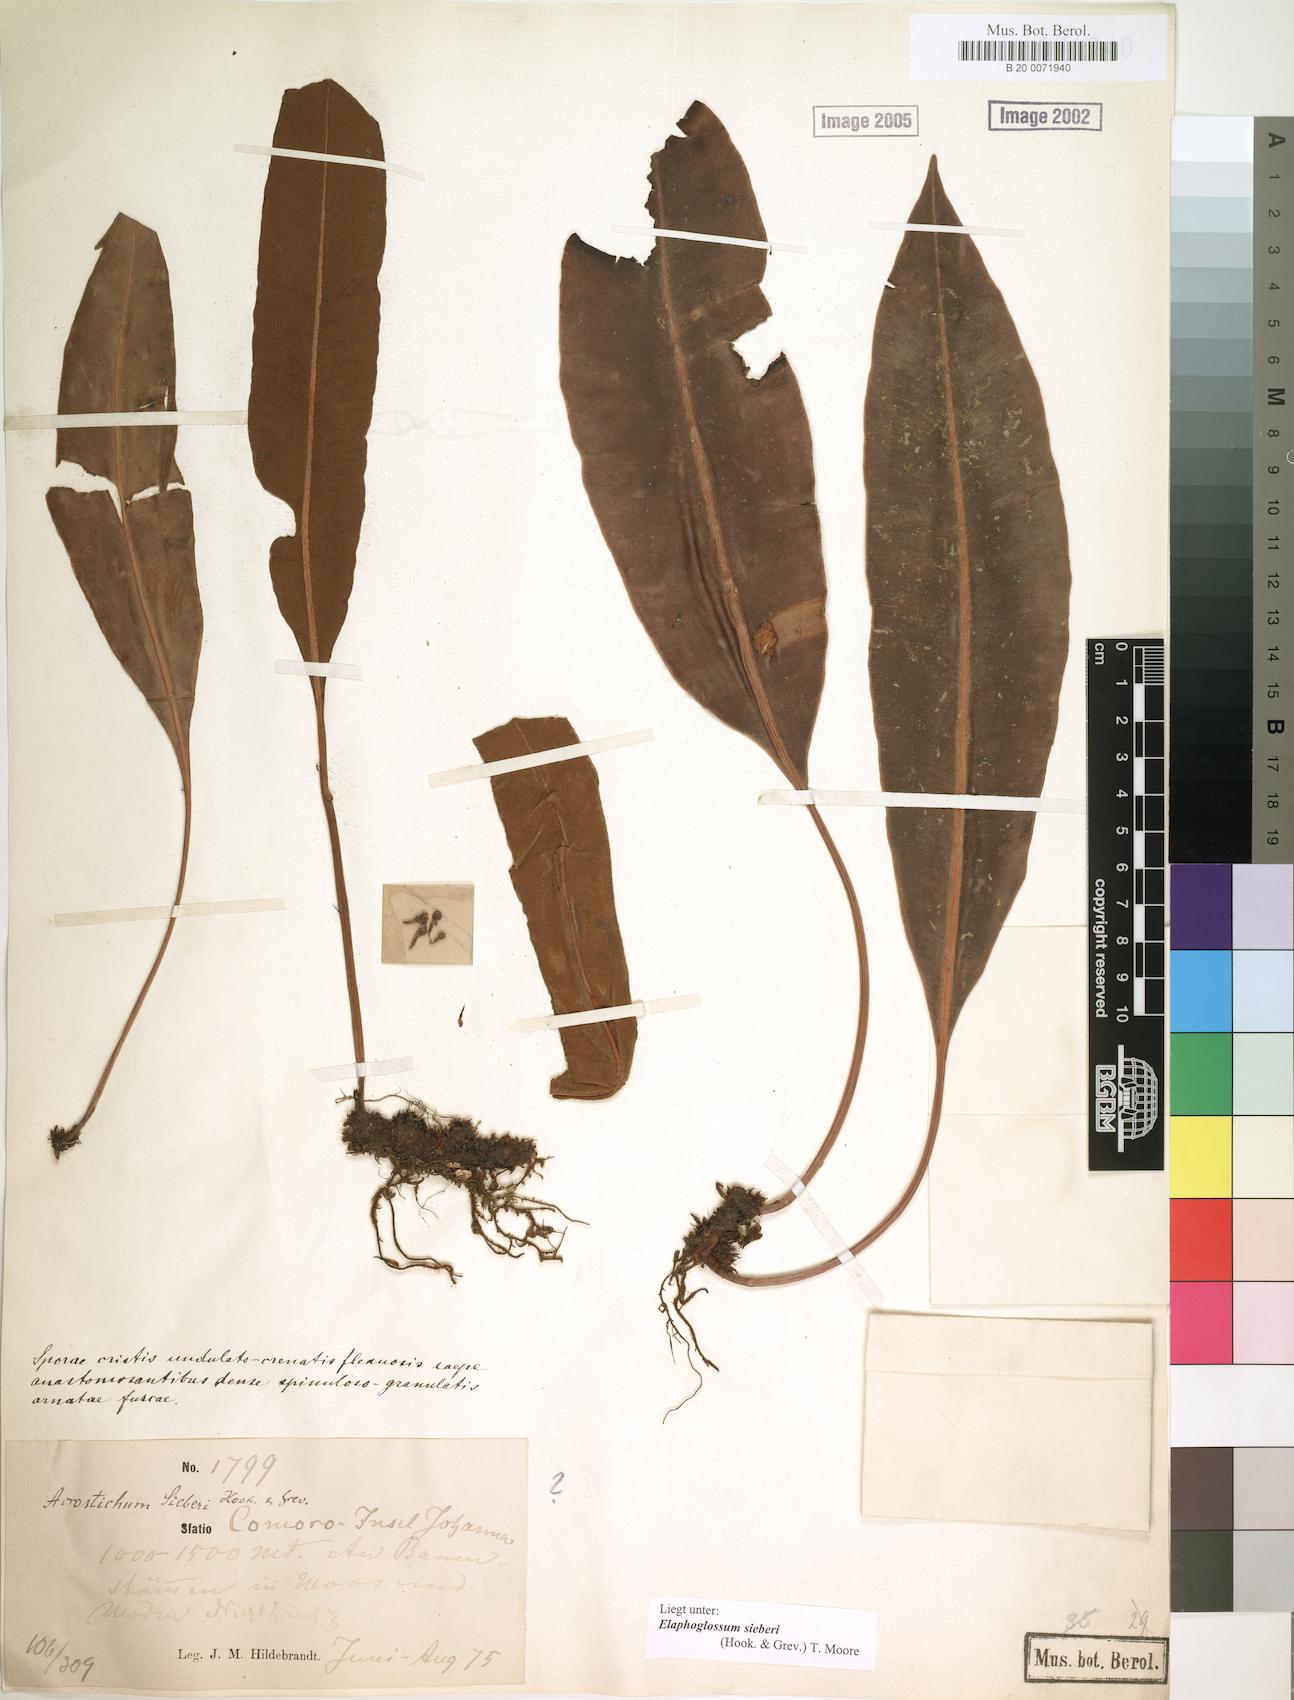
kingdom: Plantae
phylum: Tracheophyta
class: Polypodiopsida
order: Polypodiales
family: Dryopteridaceae
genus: Elaphoglossum
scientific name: Elaphoglossum sieberi
